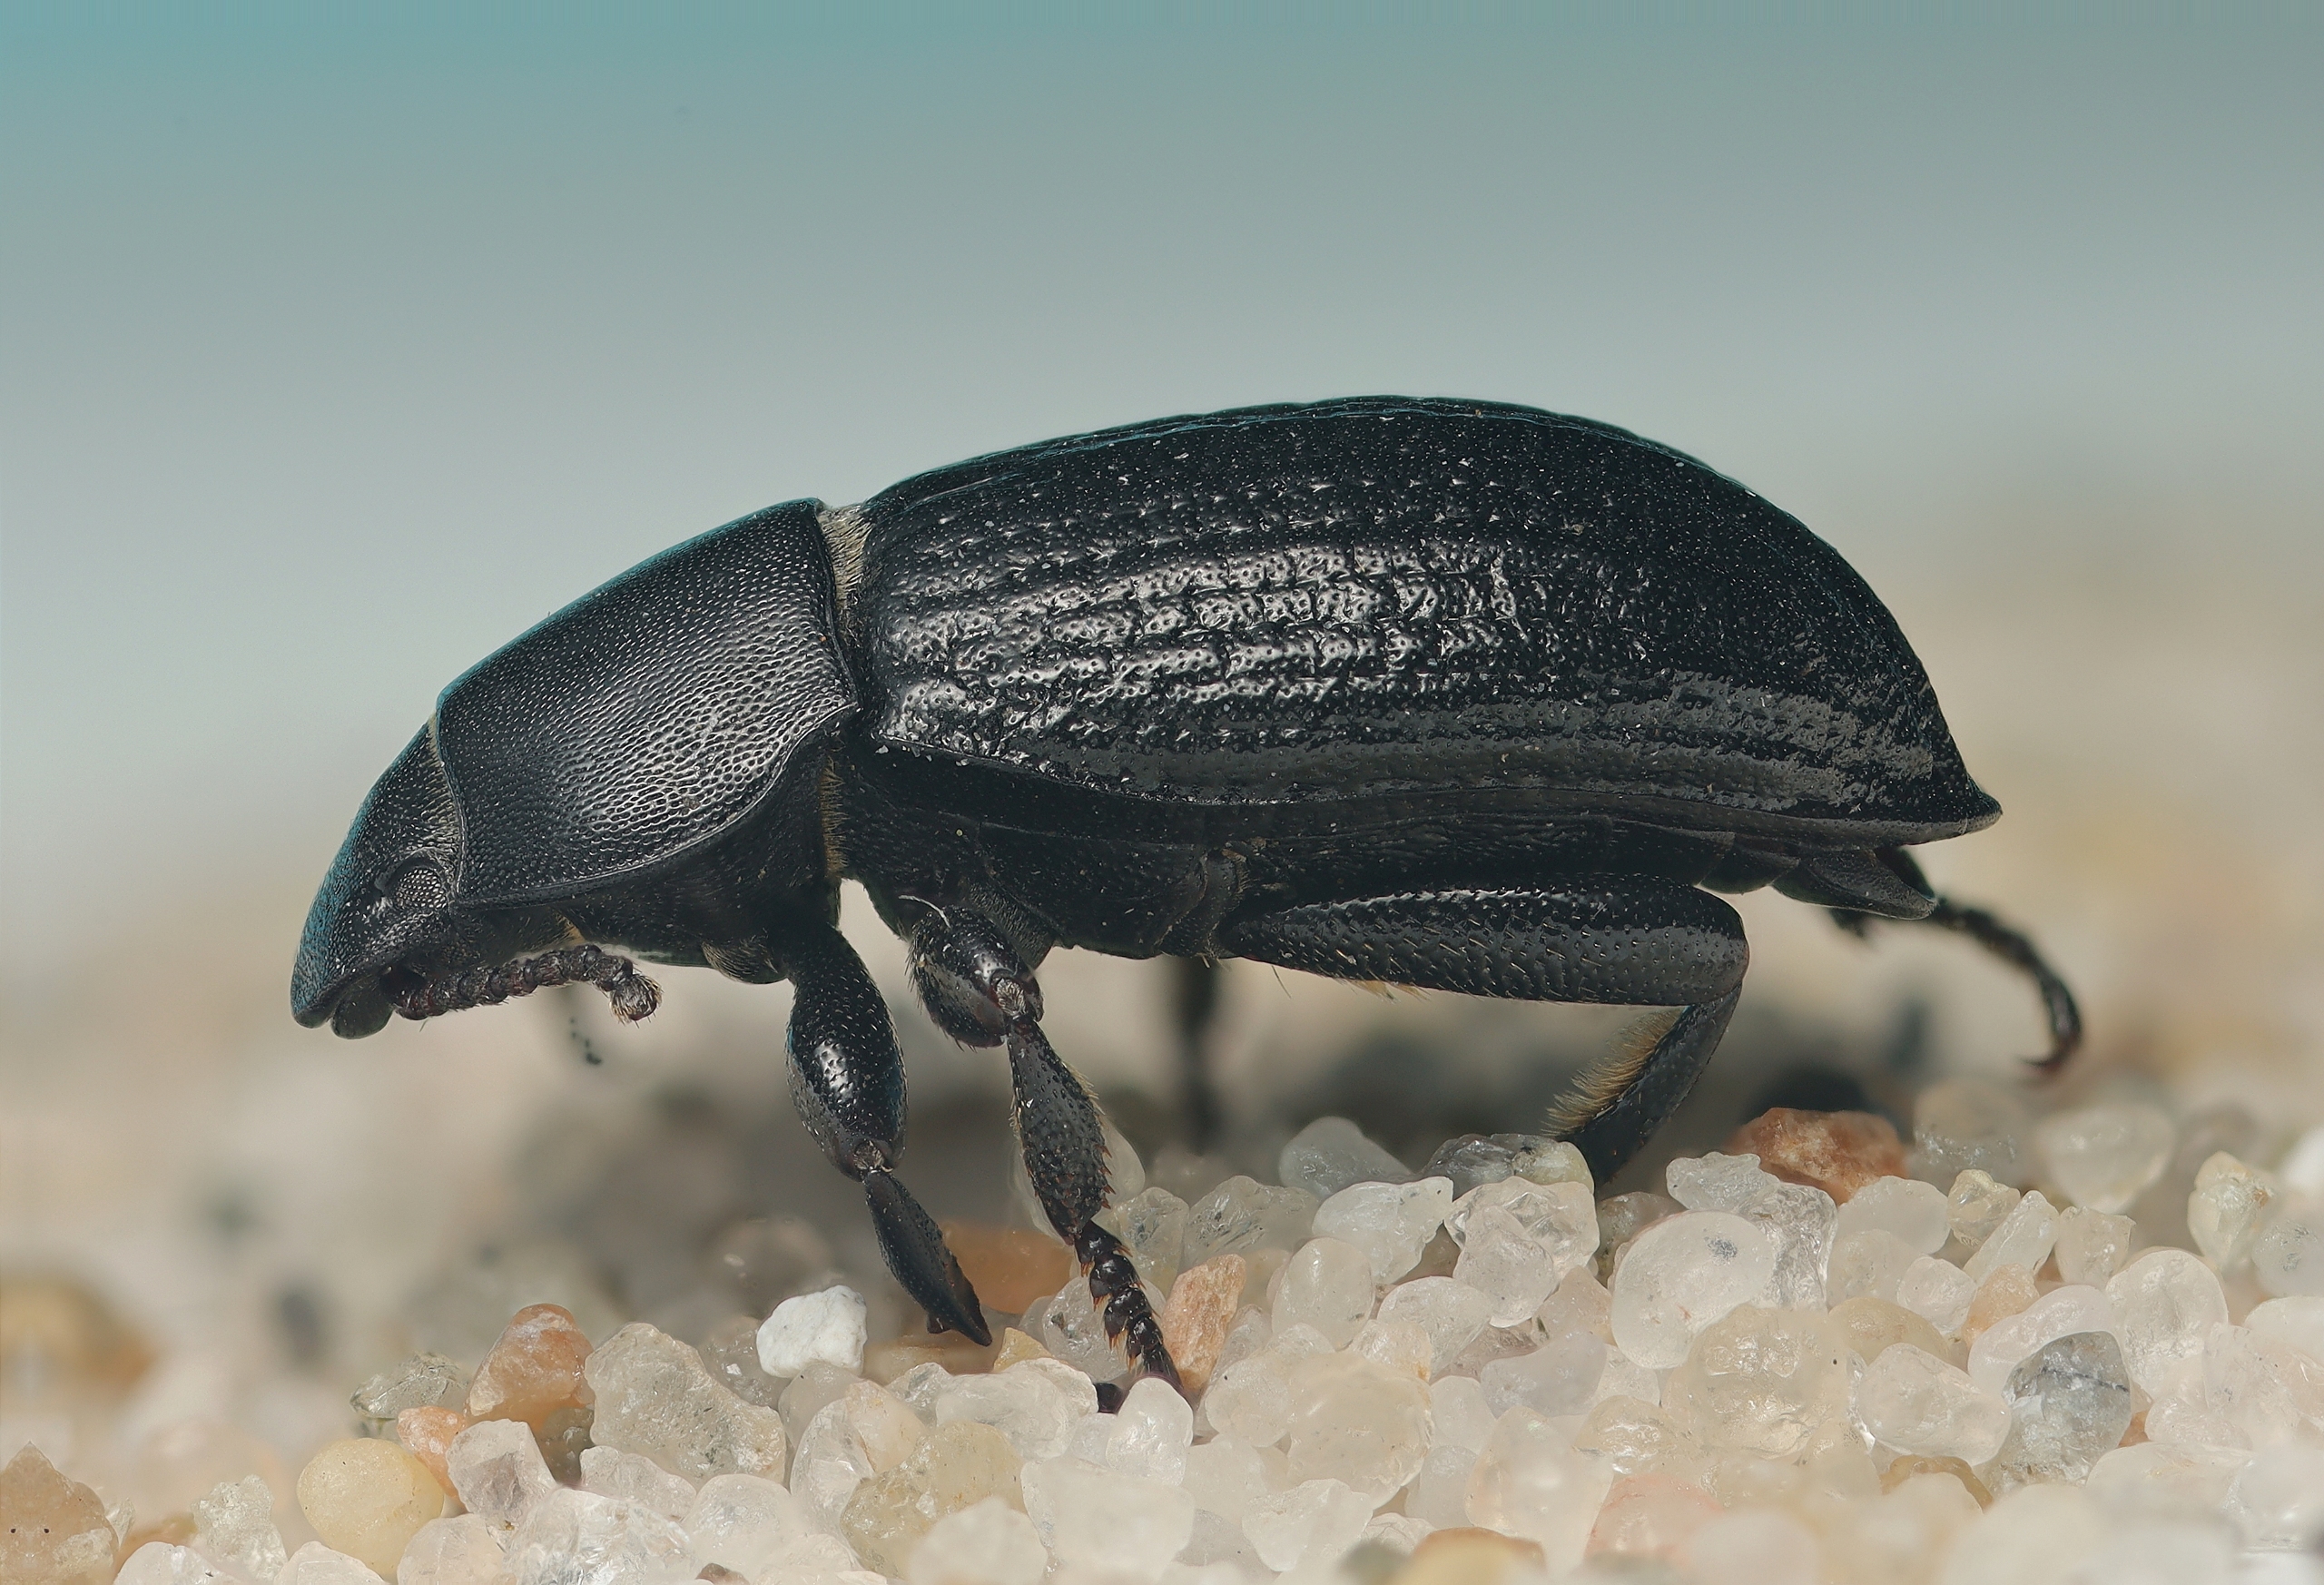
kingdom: Animalia
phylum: Arthropoda
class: Insecta
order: Coleoptera
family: Tenebrionidae
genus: Phylan
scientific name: Phylan gibbus
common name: Stor klitskyggebille
